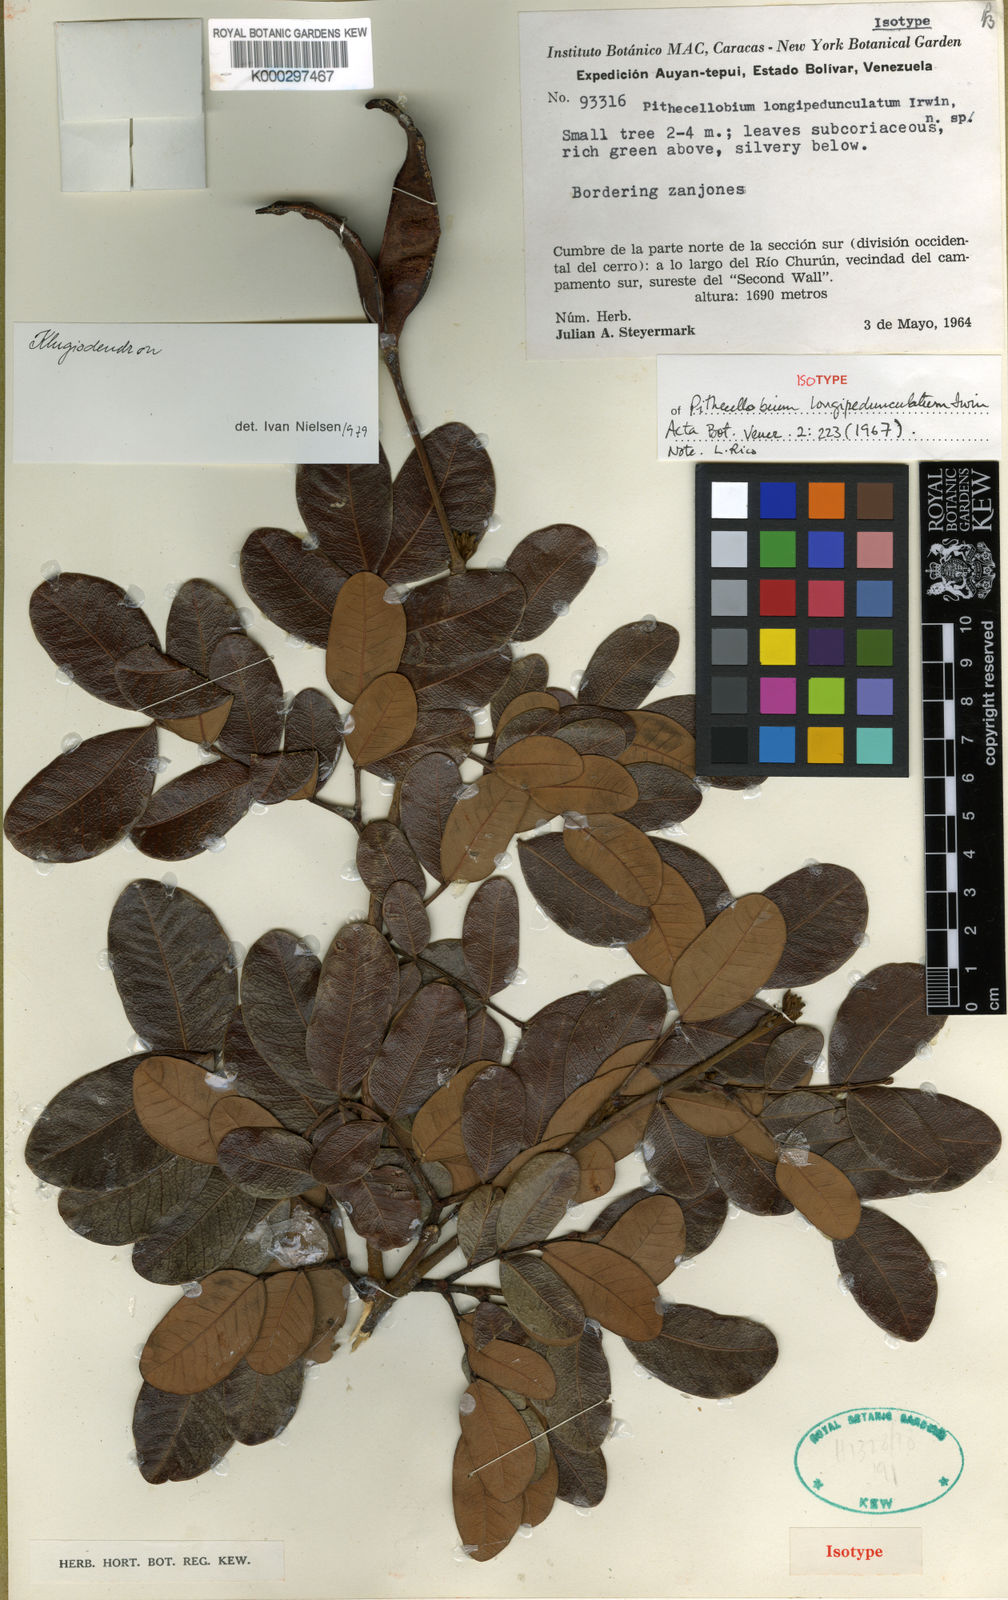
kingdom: Plantae
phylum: Tracheophyta
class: Magnoliopsida
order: Fabales
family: Fabaceae
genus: Jupunba
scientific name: Jupunba longipedunculata
